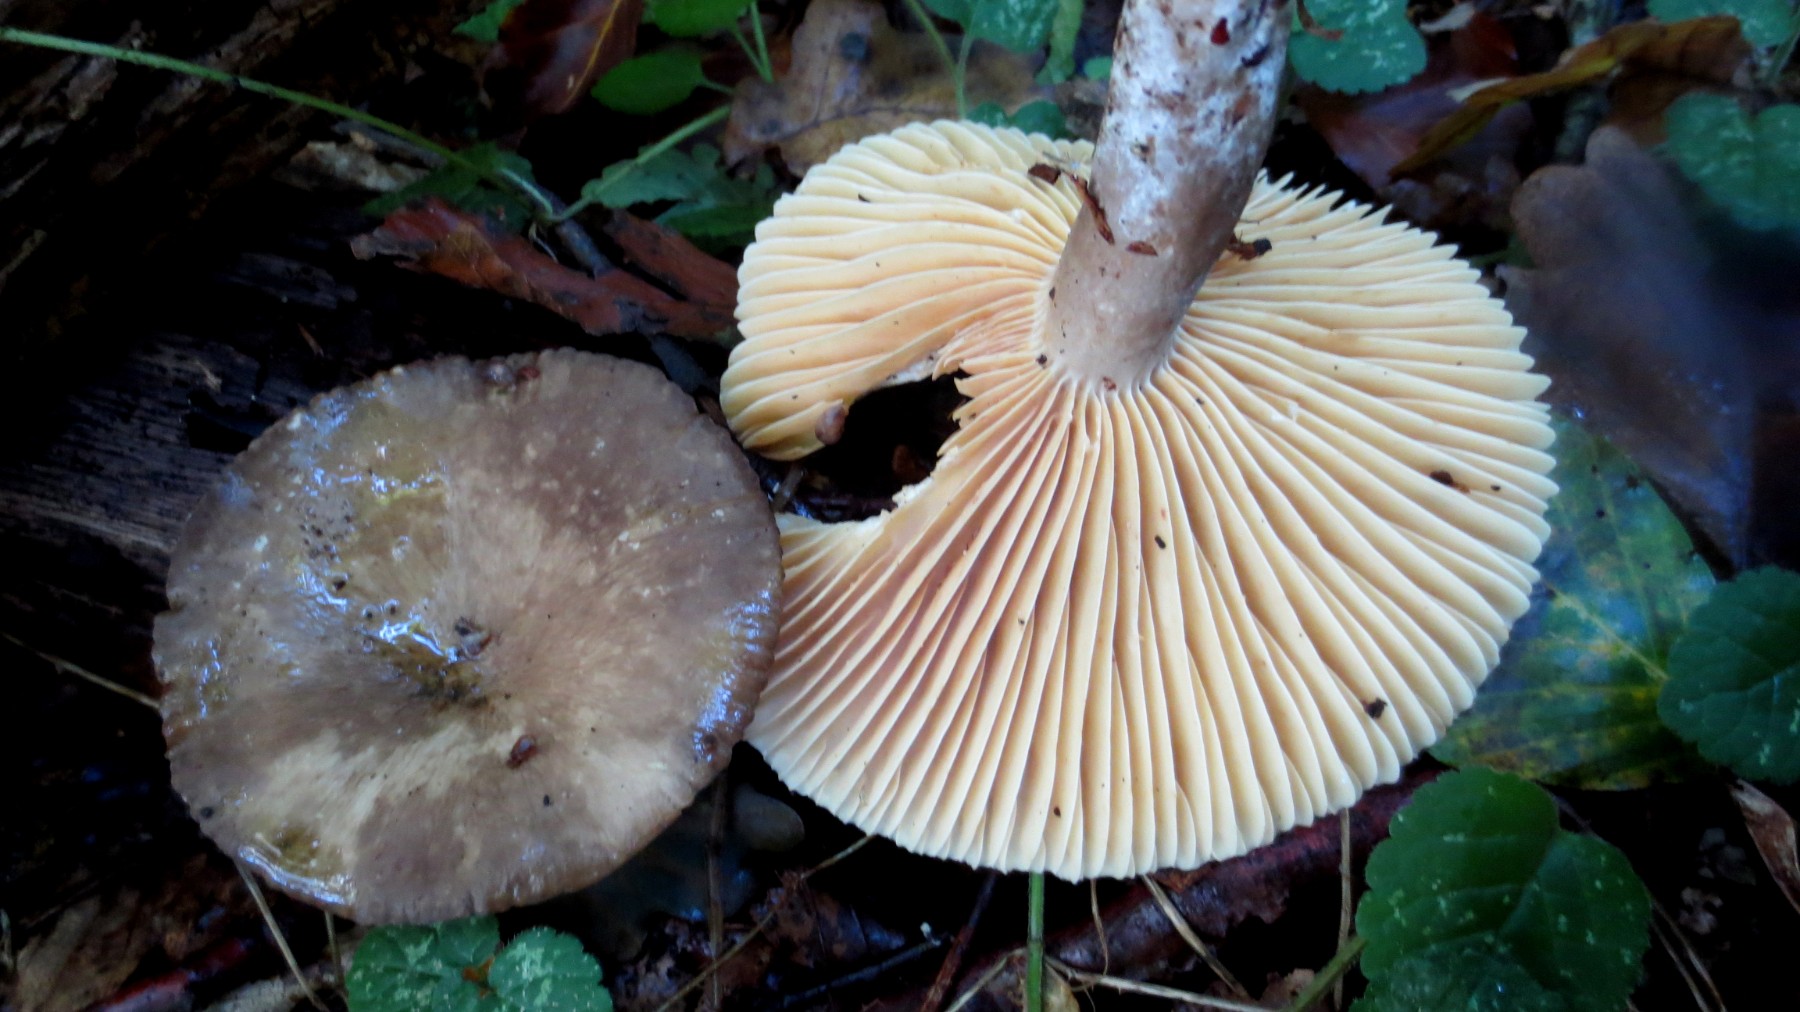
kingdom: Fungi
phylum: Basidiomycota
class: Agaricomycetes
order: Russulales
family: Russulaceae
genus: Lactarius
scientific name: Lactarius romagnesii
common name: fjernbladet mælkehat
